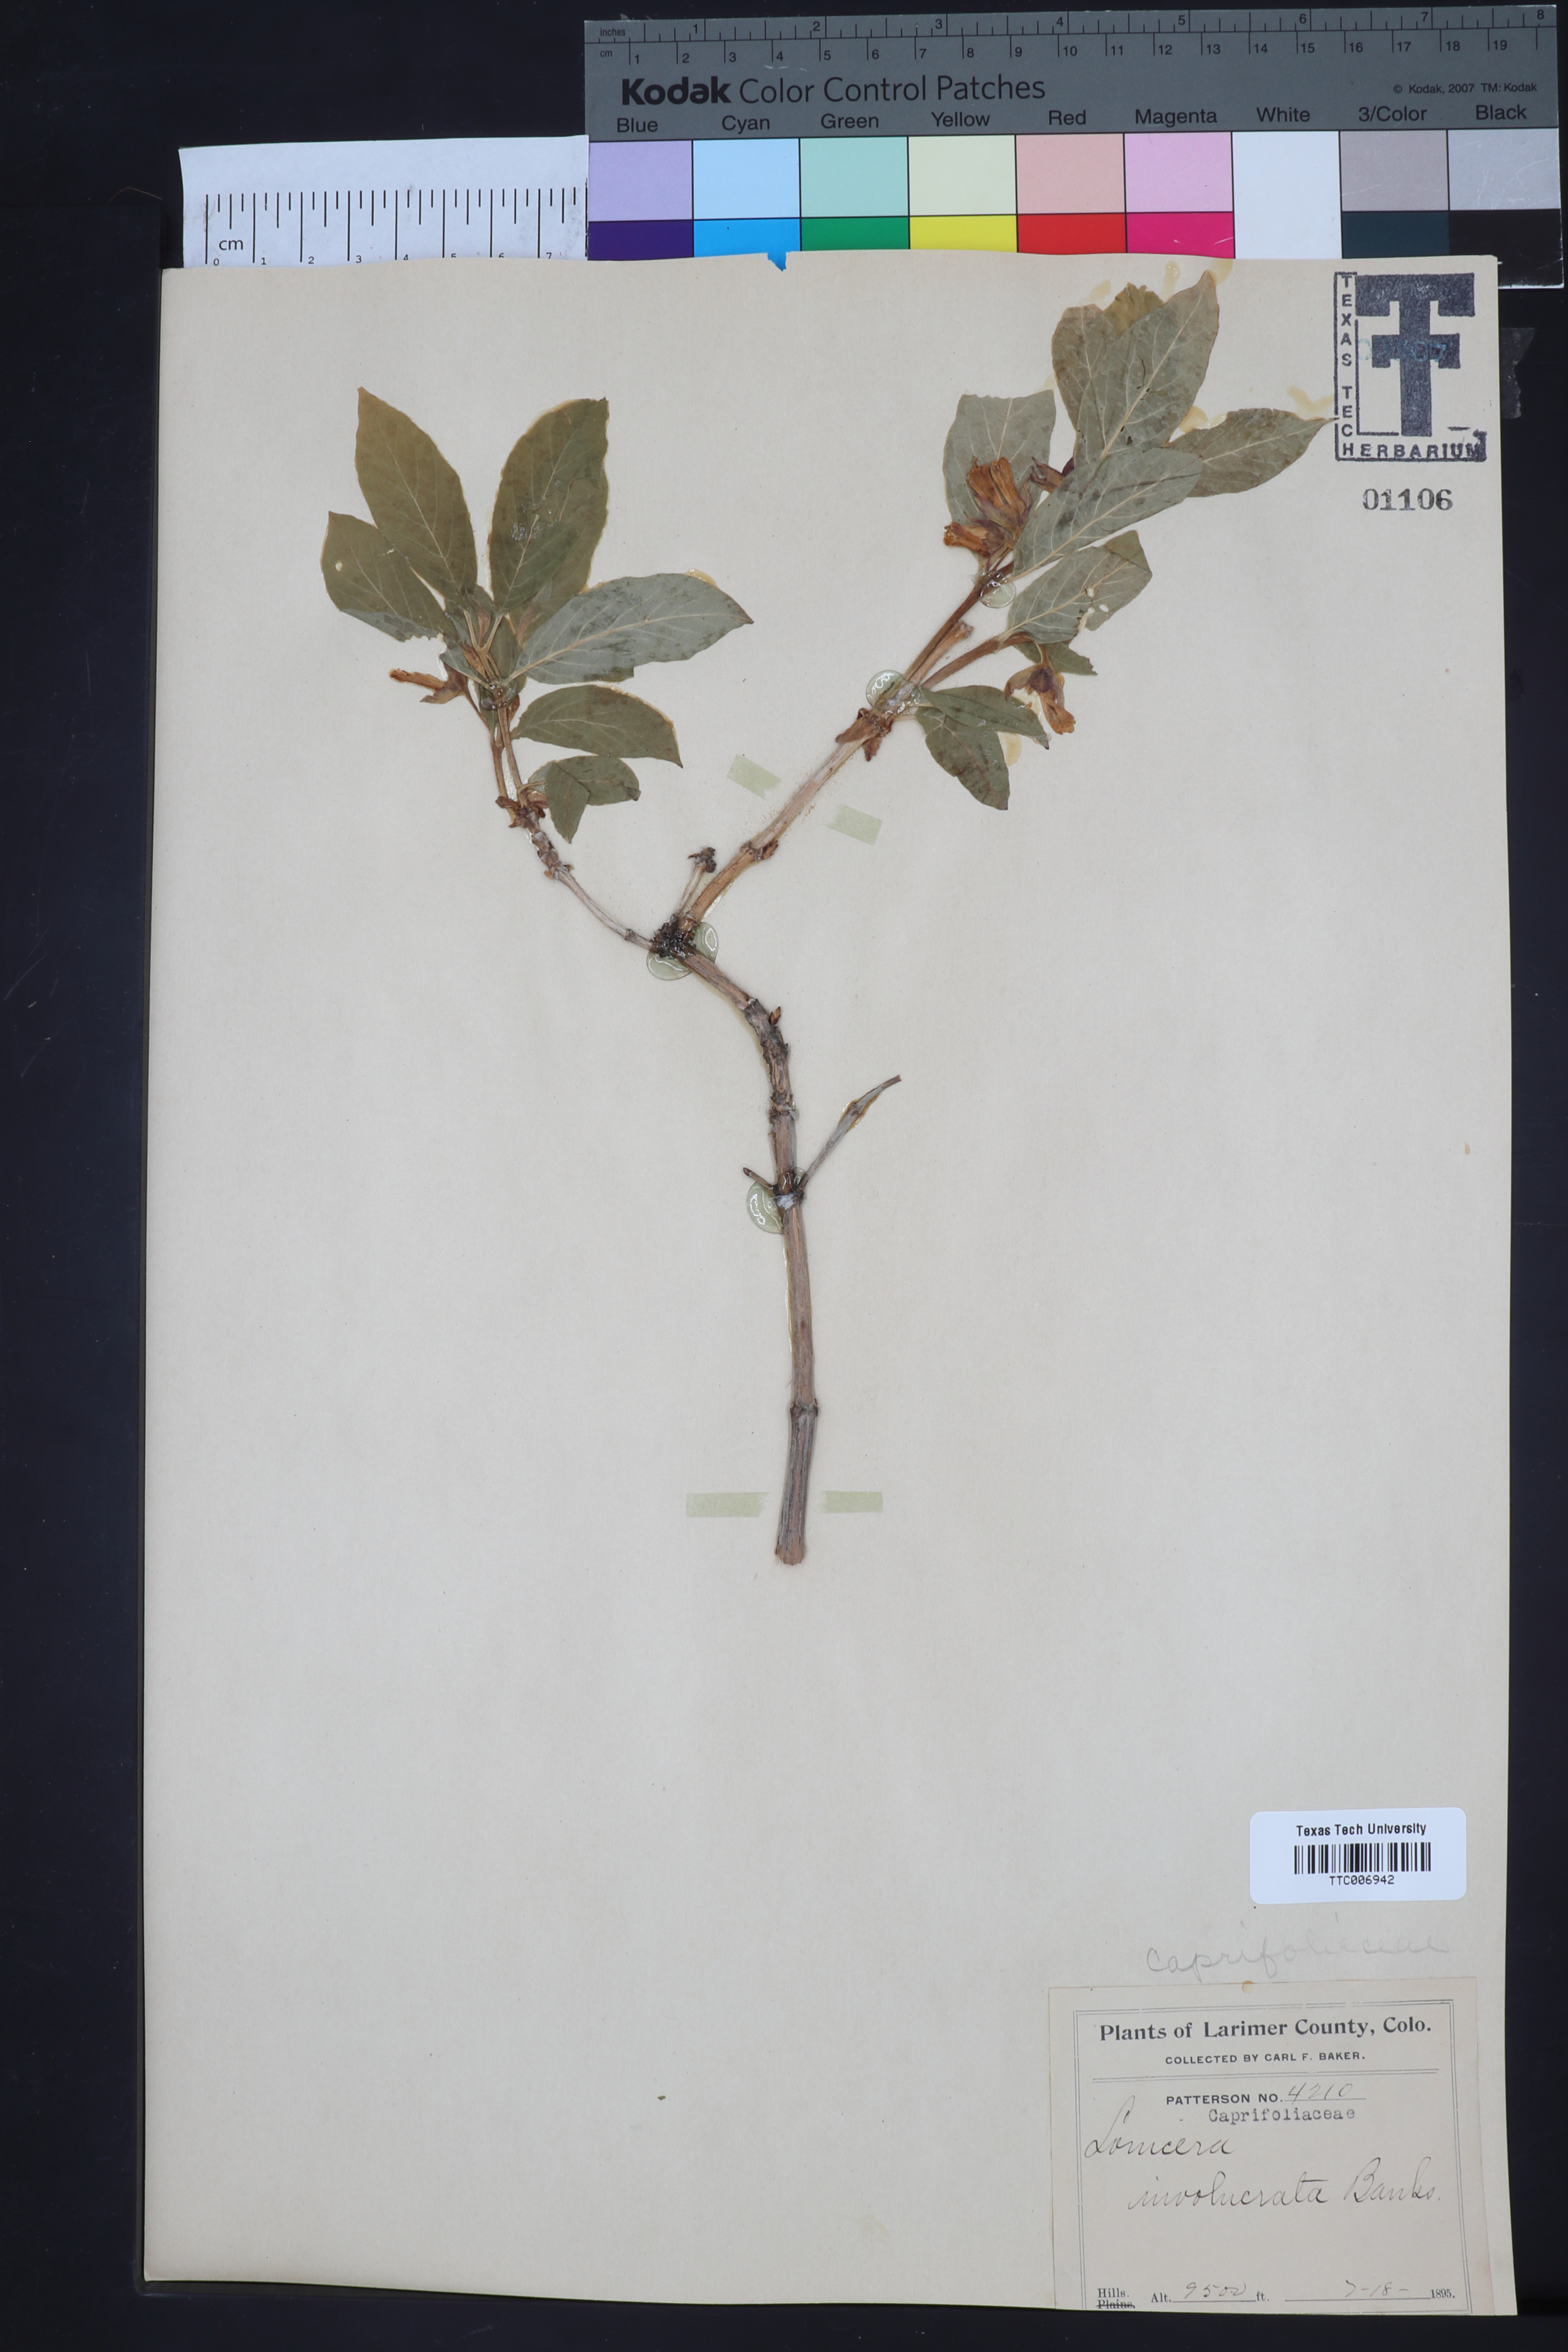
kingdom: Plantae
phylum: Tracheophyta
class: Magnoliopsida
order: Dipsacales
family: Caprifoliaceae
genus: Lonicera
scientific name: Lonicera involucrata
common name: Californian honeysuckle
